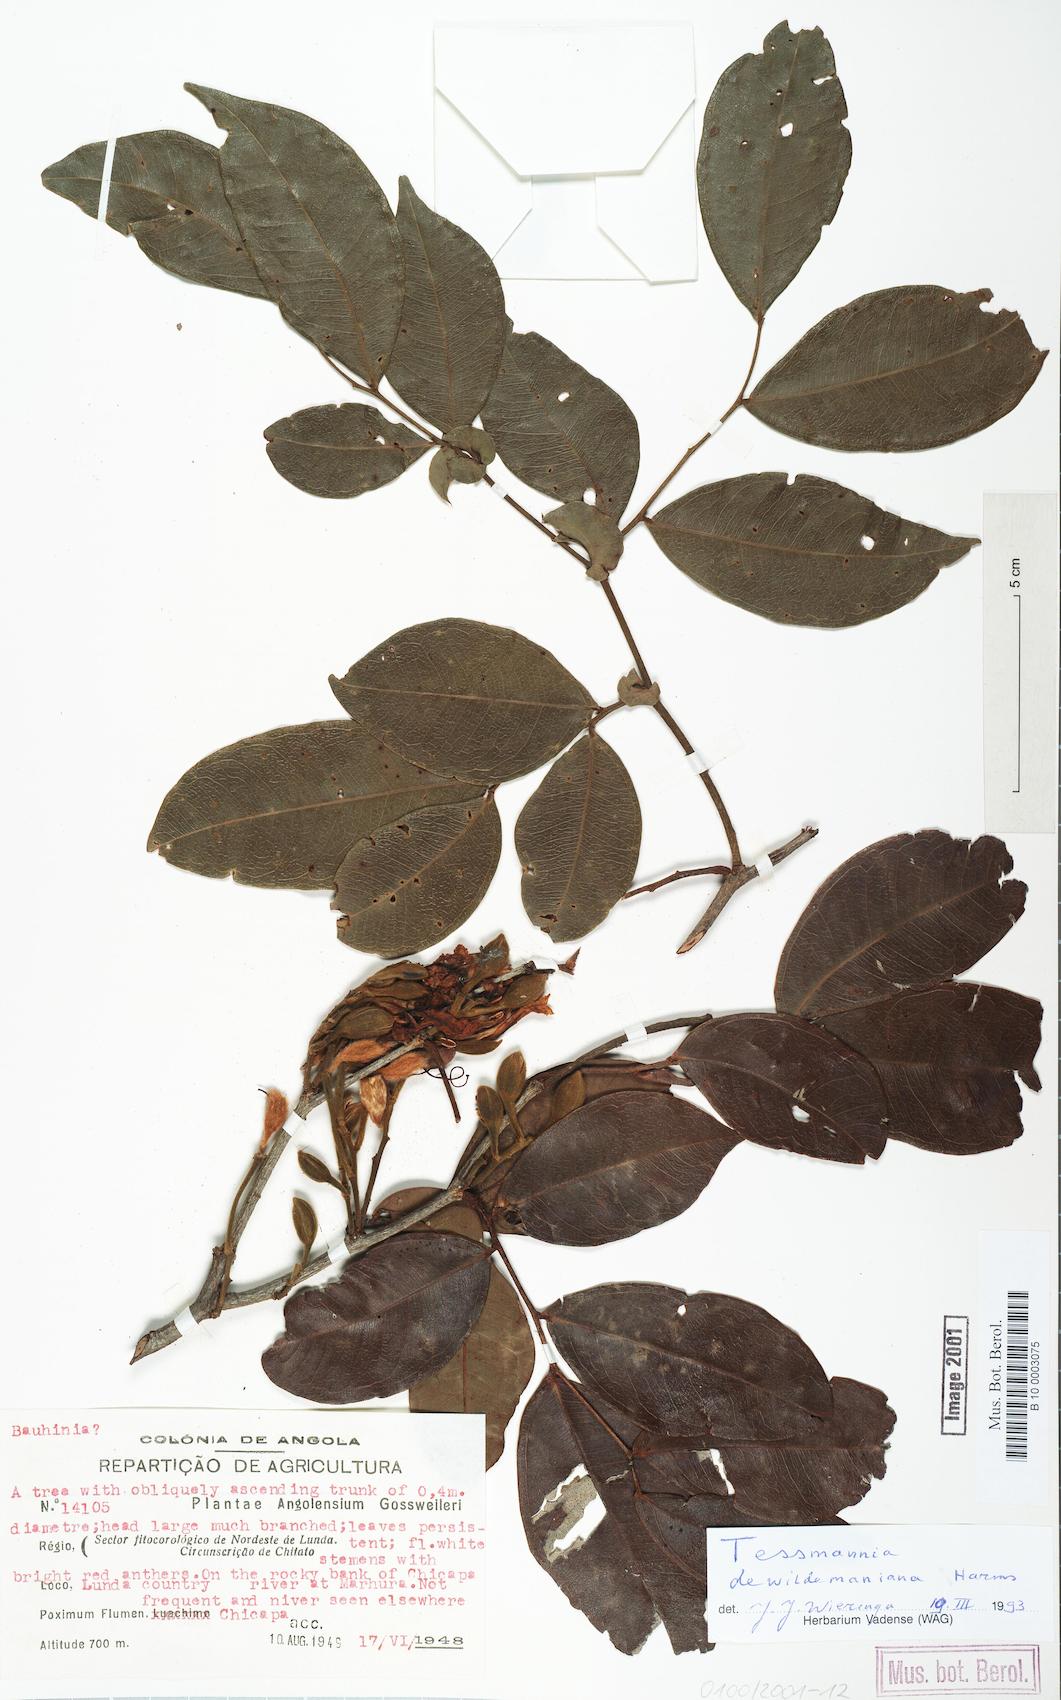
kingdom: Plantae
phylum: Tracheophyta
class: Magnoliopsida
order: Fabales
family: Fabaceae
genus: Tessmannia
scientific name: Tessmannia dewildemaniana
